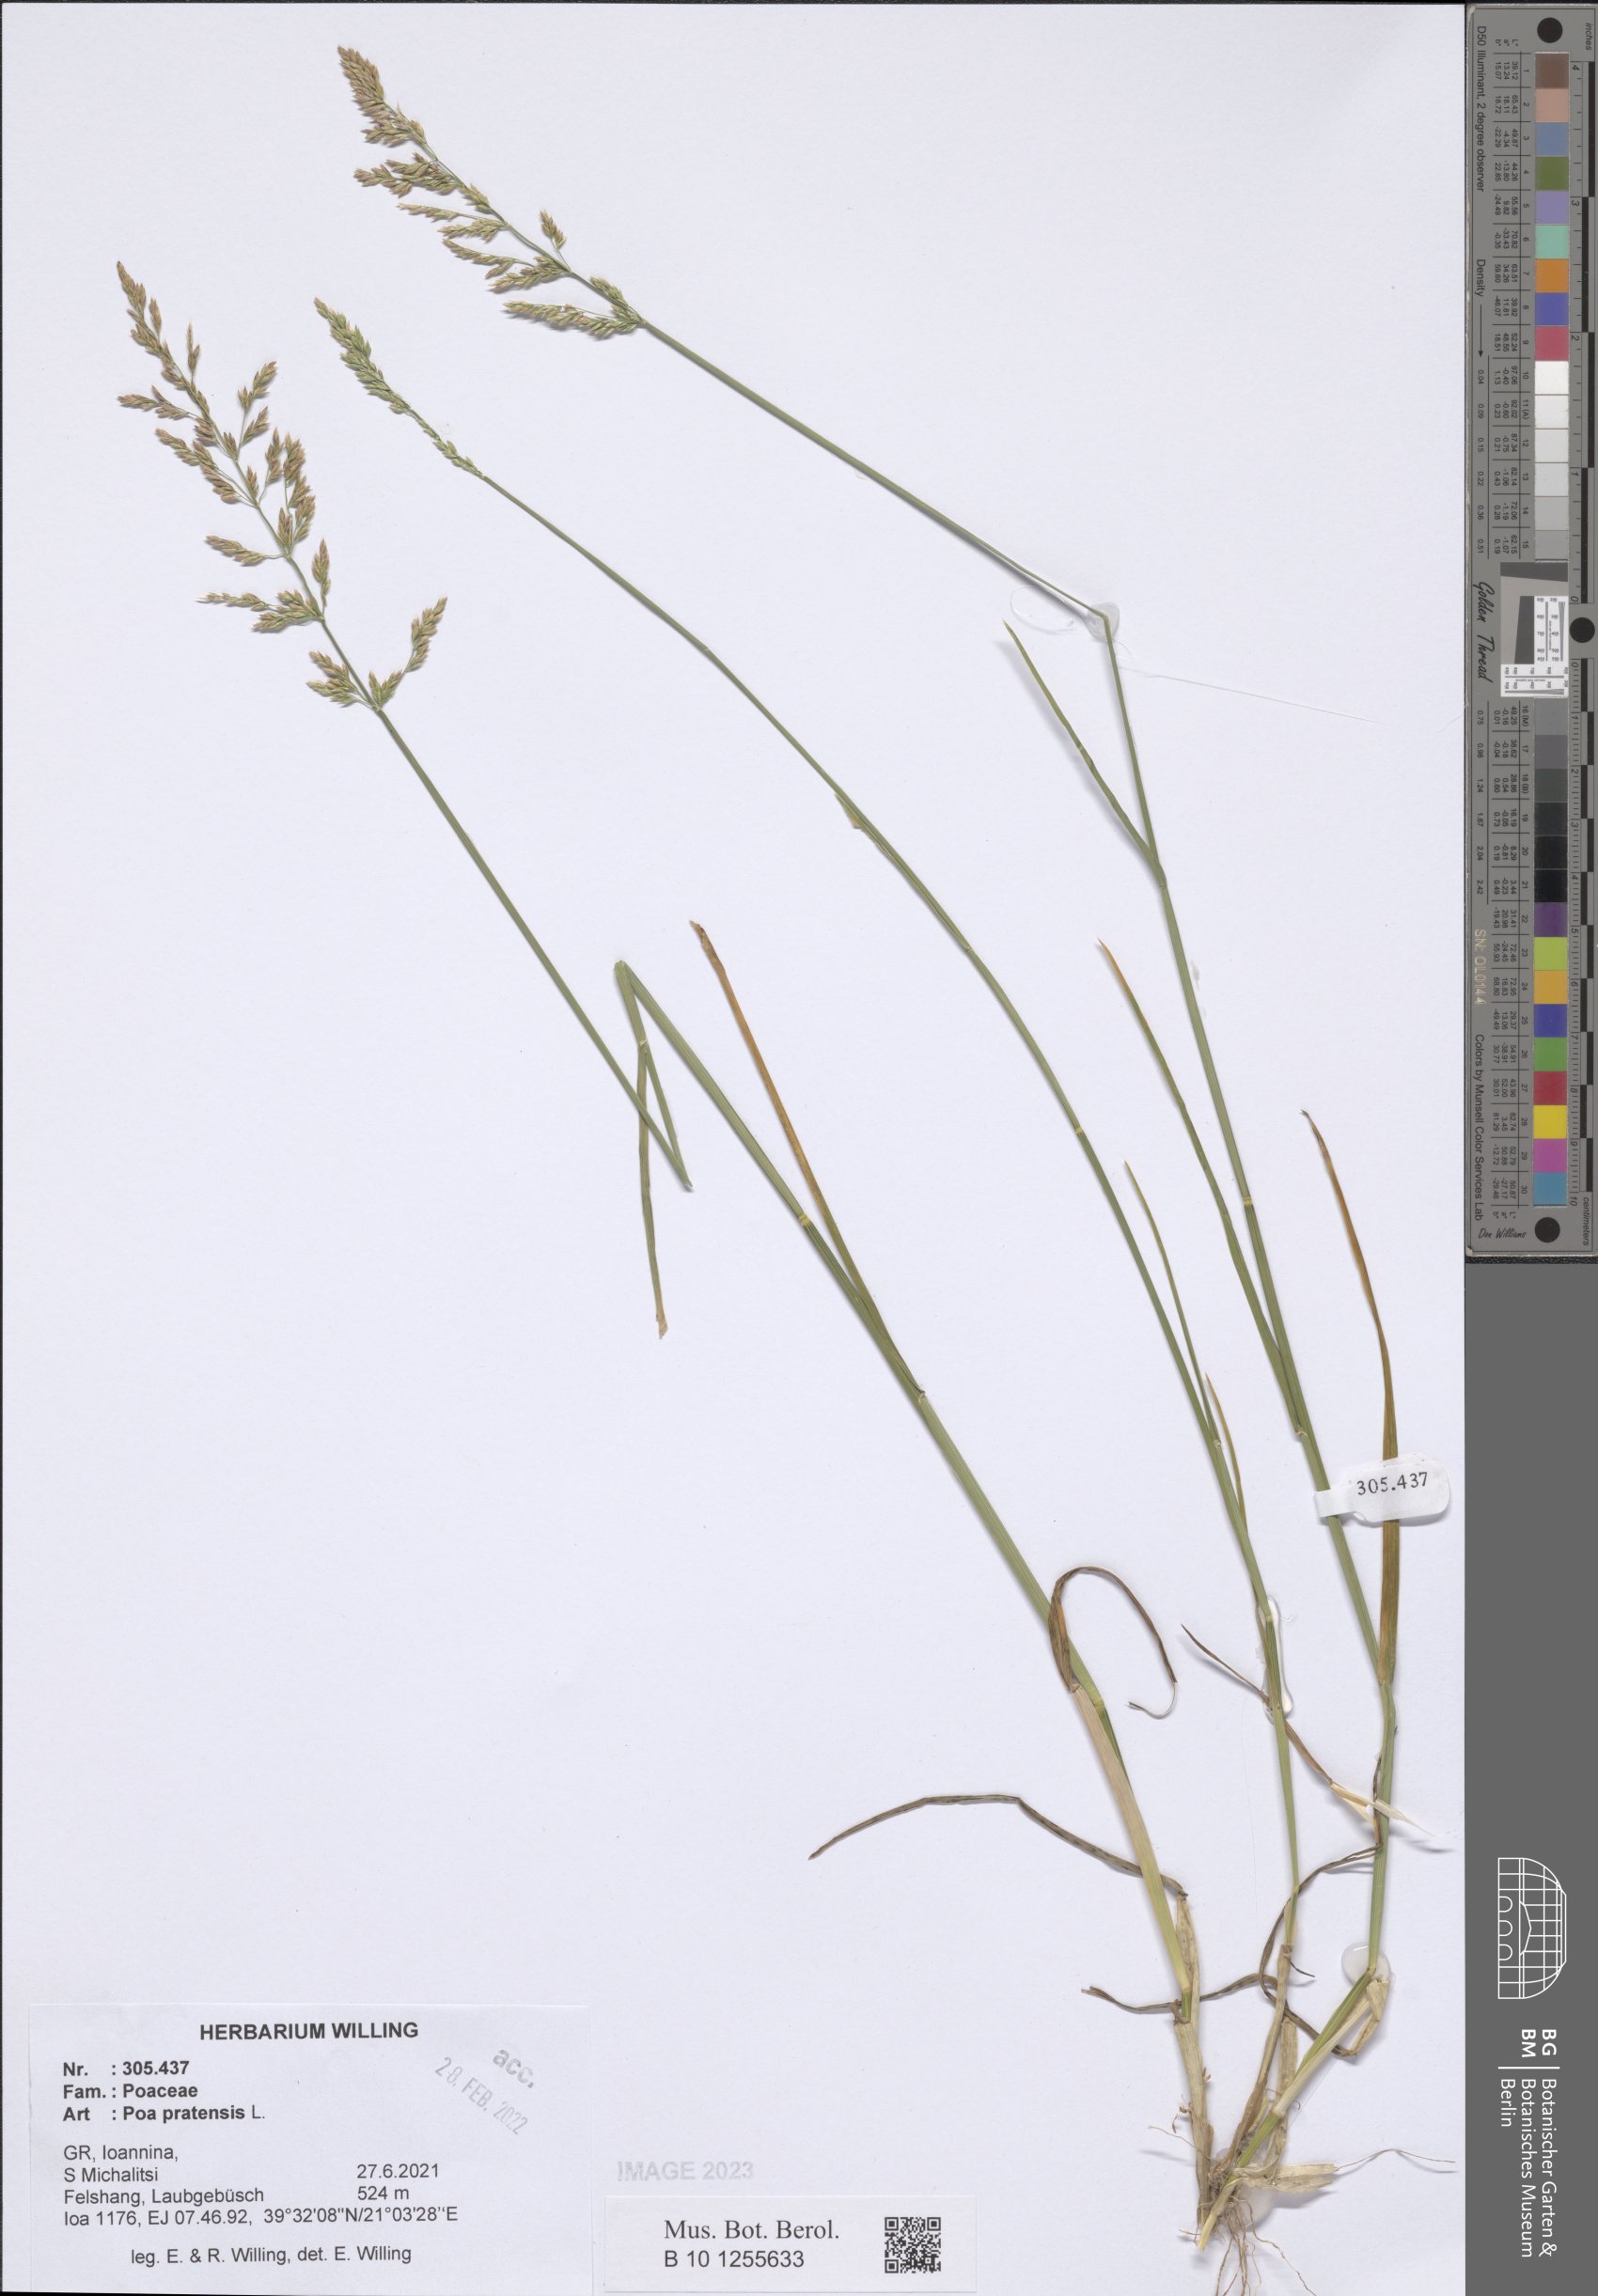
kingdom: Plantae
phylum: Tracheophyta
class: Liliopsida
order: Poales
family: Poaceae
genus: Poa
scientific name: Poa pratensis
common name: Kentucky bluegrass
